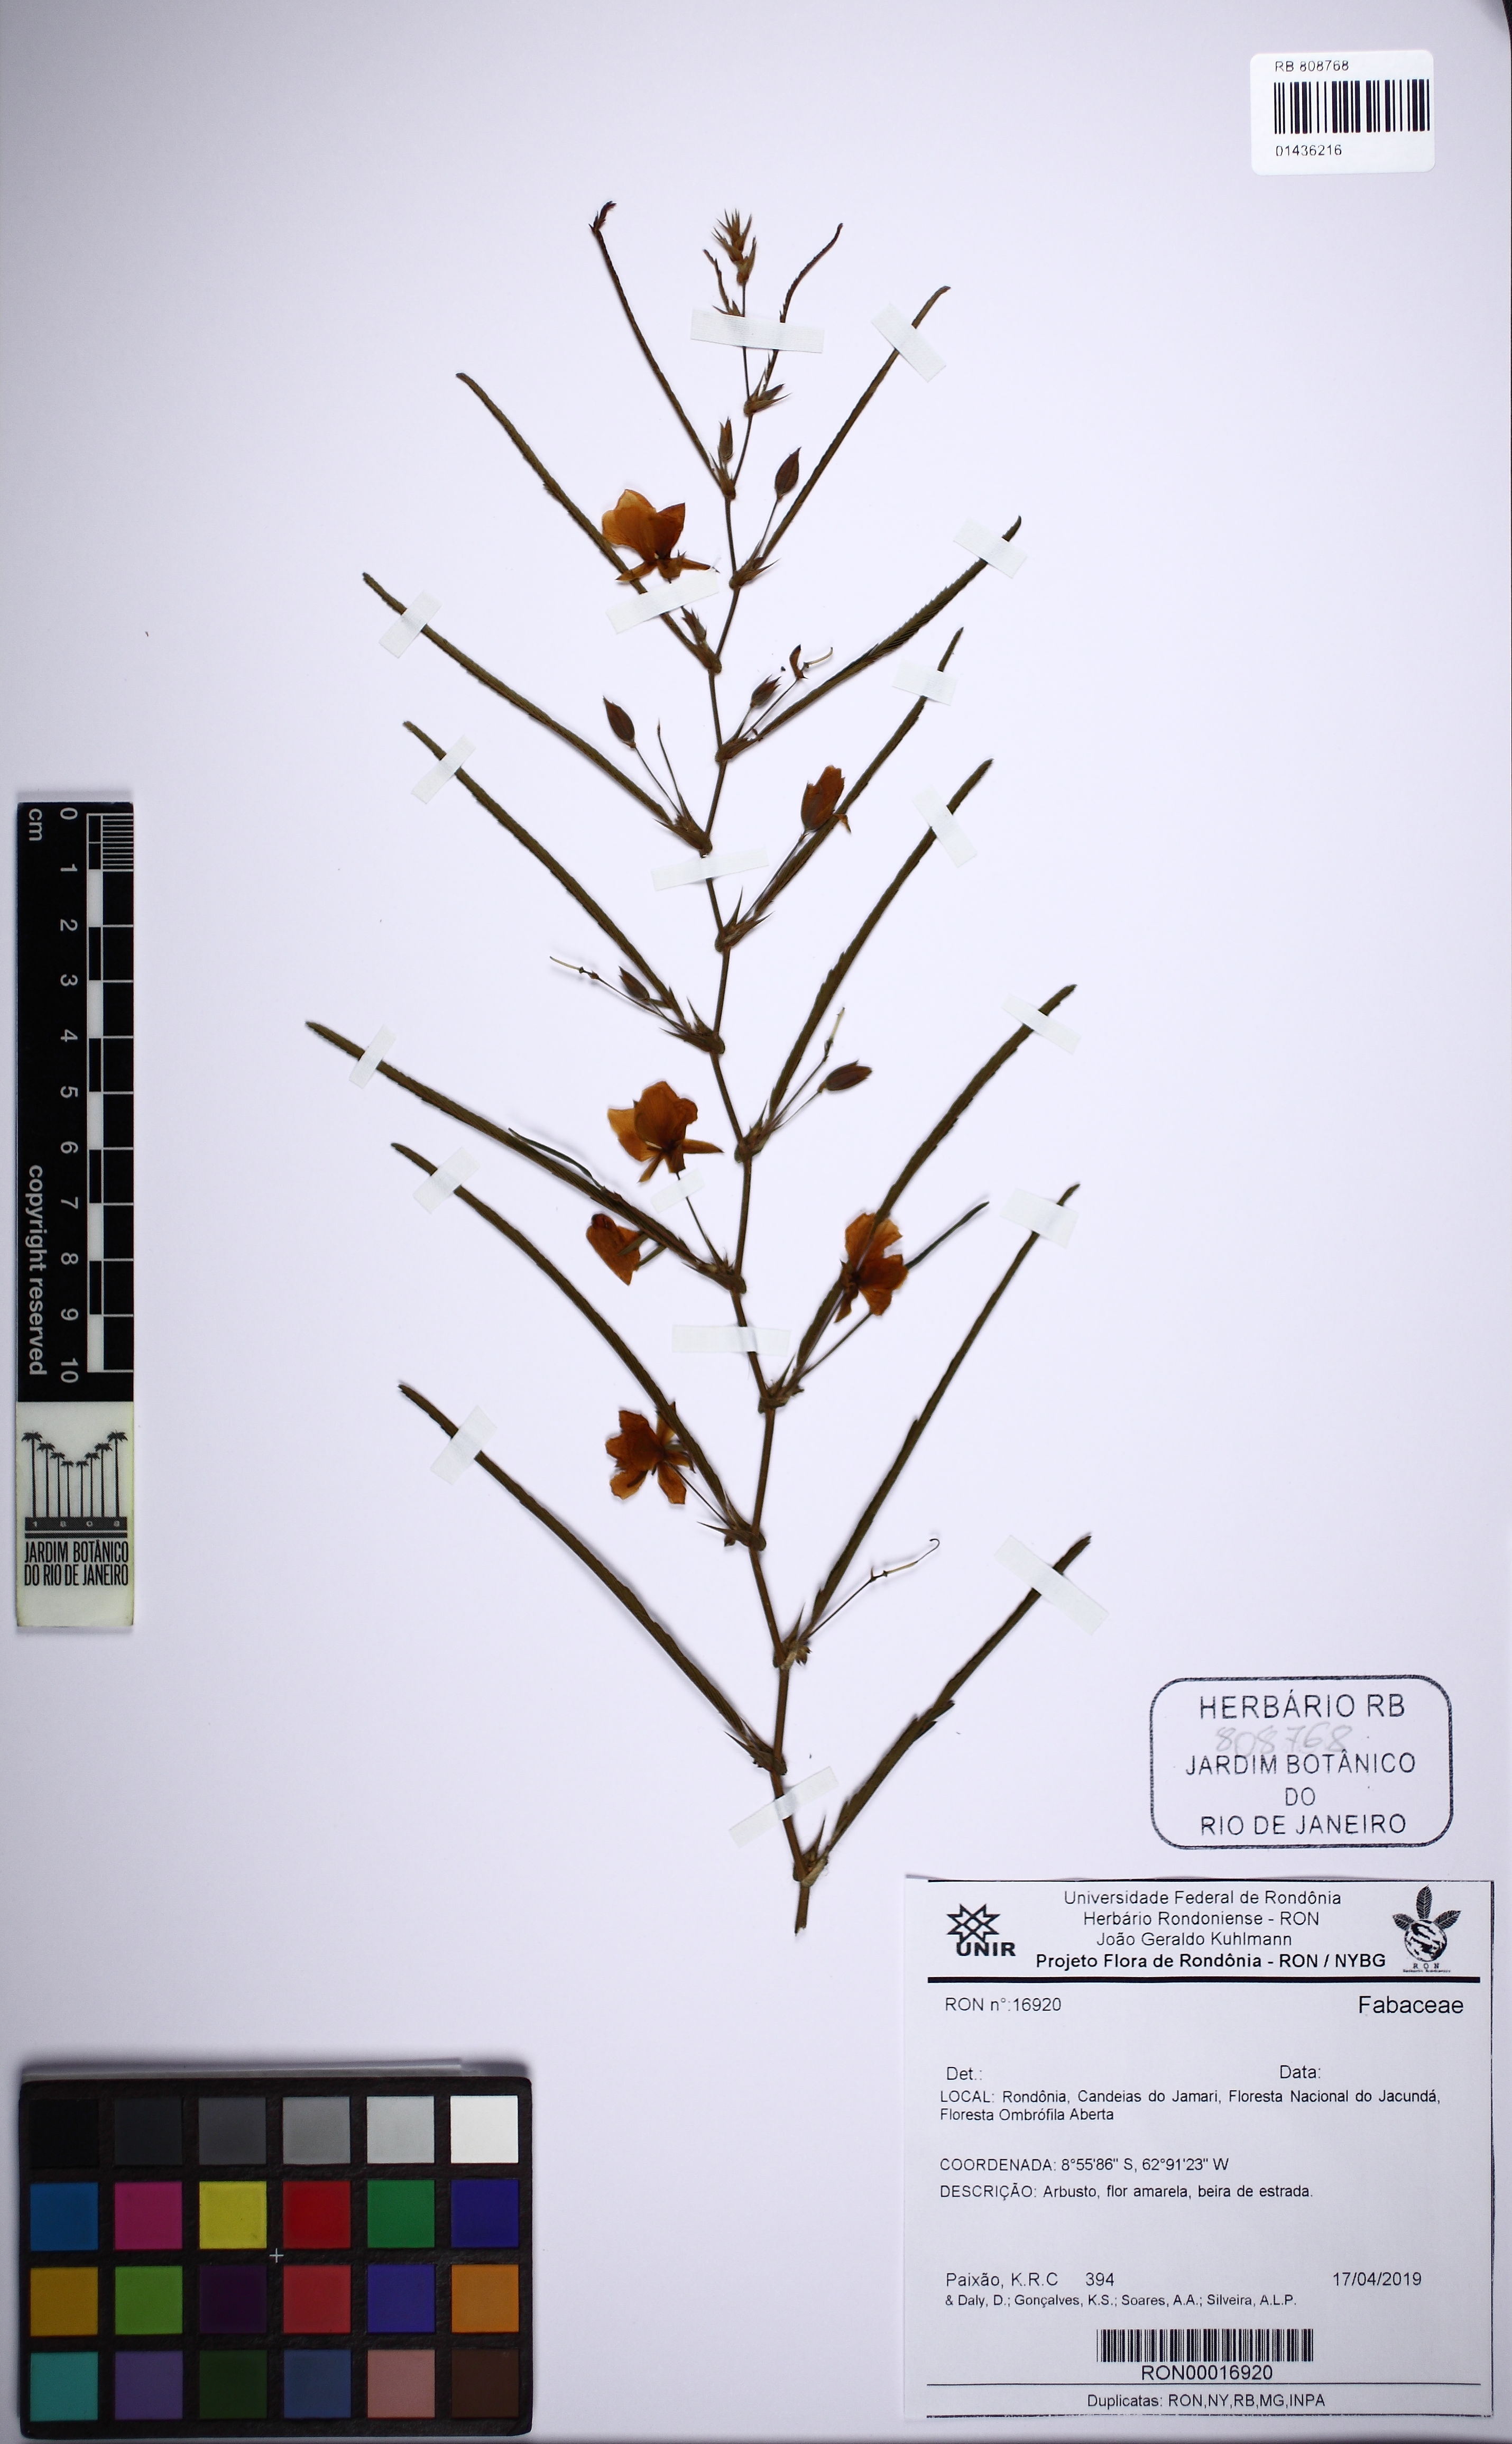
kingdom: Plantae
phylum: Tracheophyta
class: Magnoliopsida
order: Fabales
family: Fabaceae
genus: Chamaecrista
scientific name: Chamaecrista benthamii
